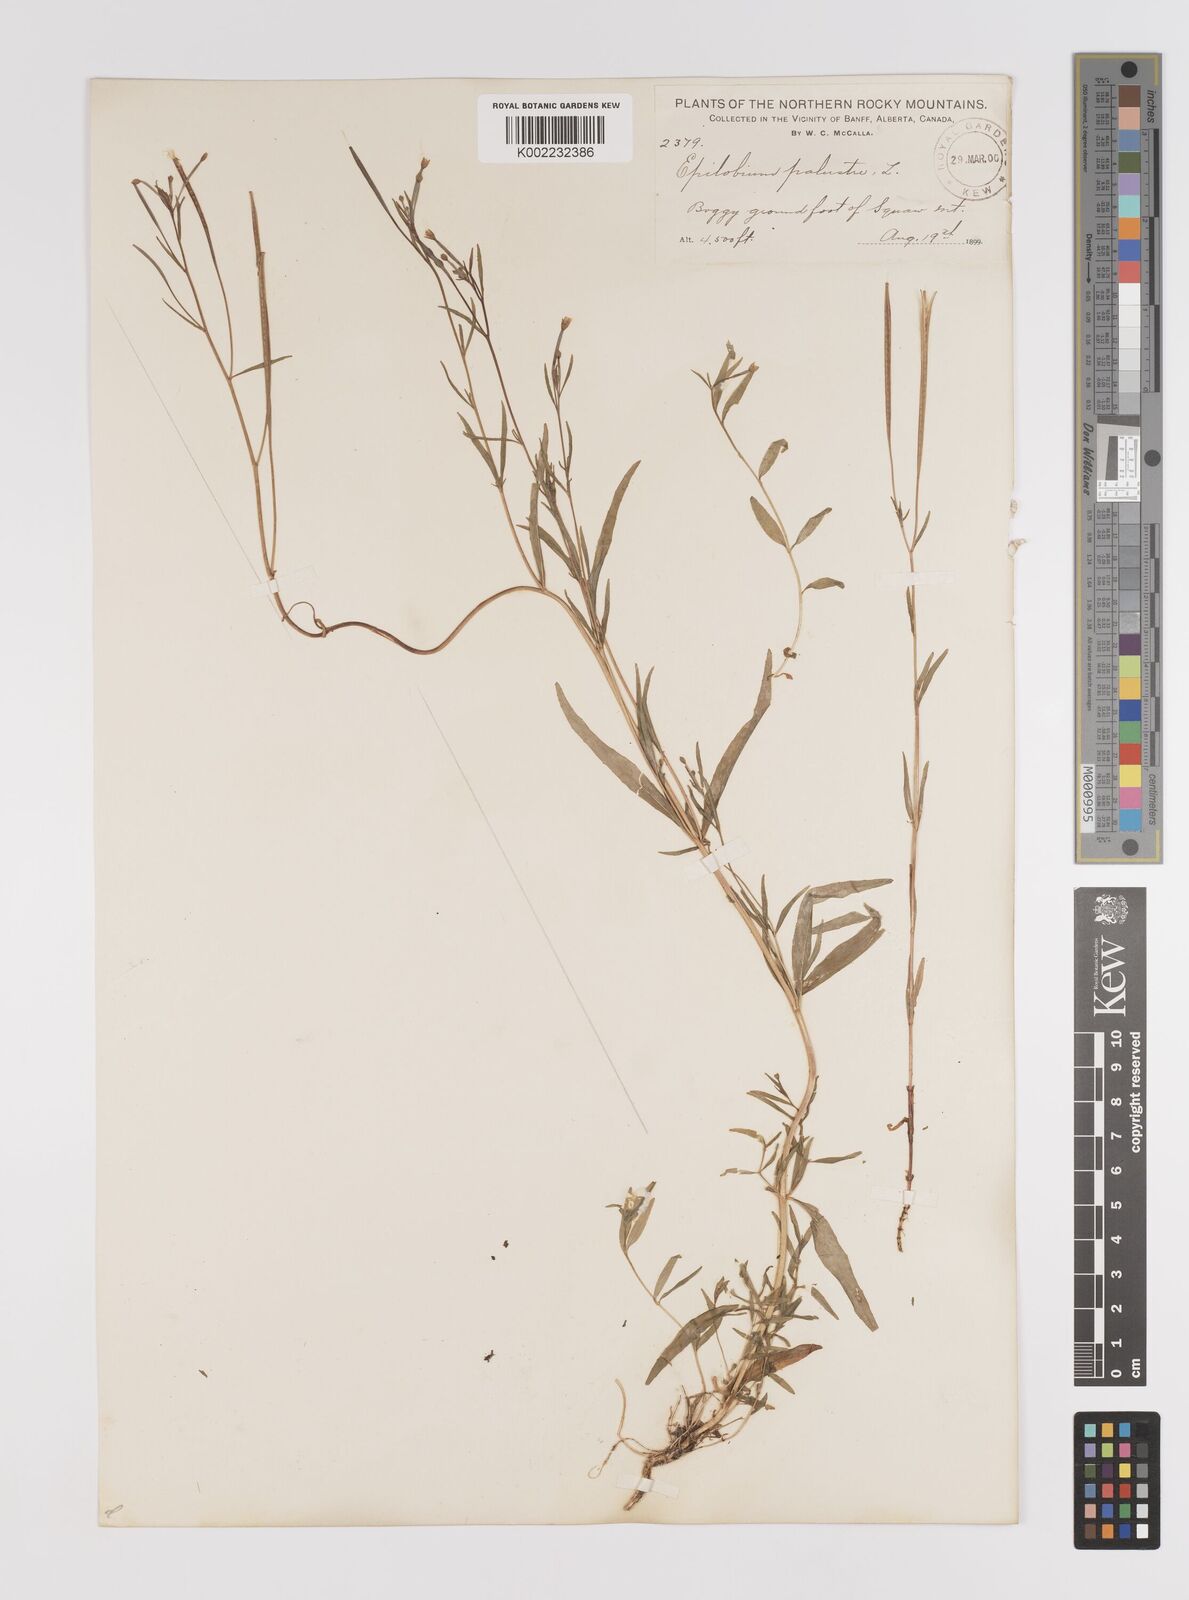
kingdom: Plantae
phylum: Tracheophyta
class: Magnoliopsida
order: Myrtales
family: Onagraceae
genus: Epilobium
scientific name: Epilobium palustre
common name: Marsh willowherb
